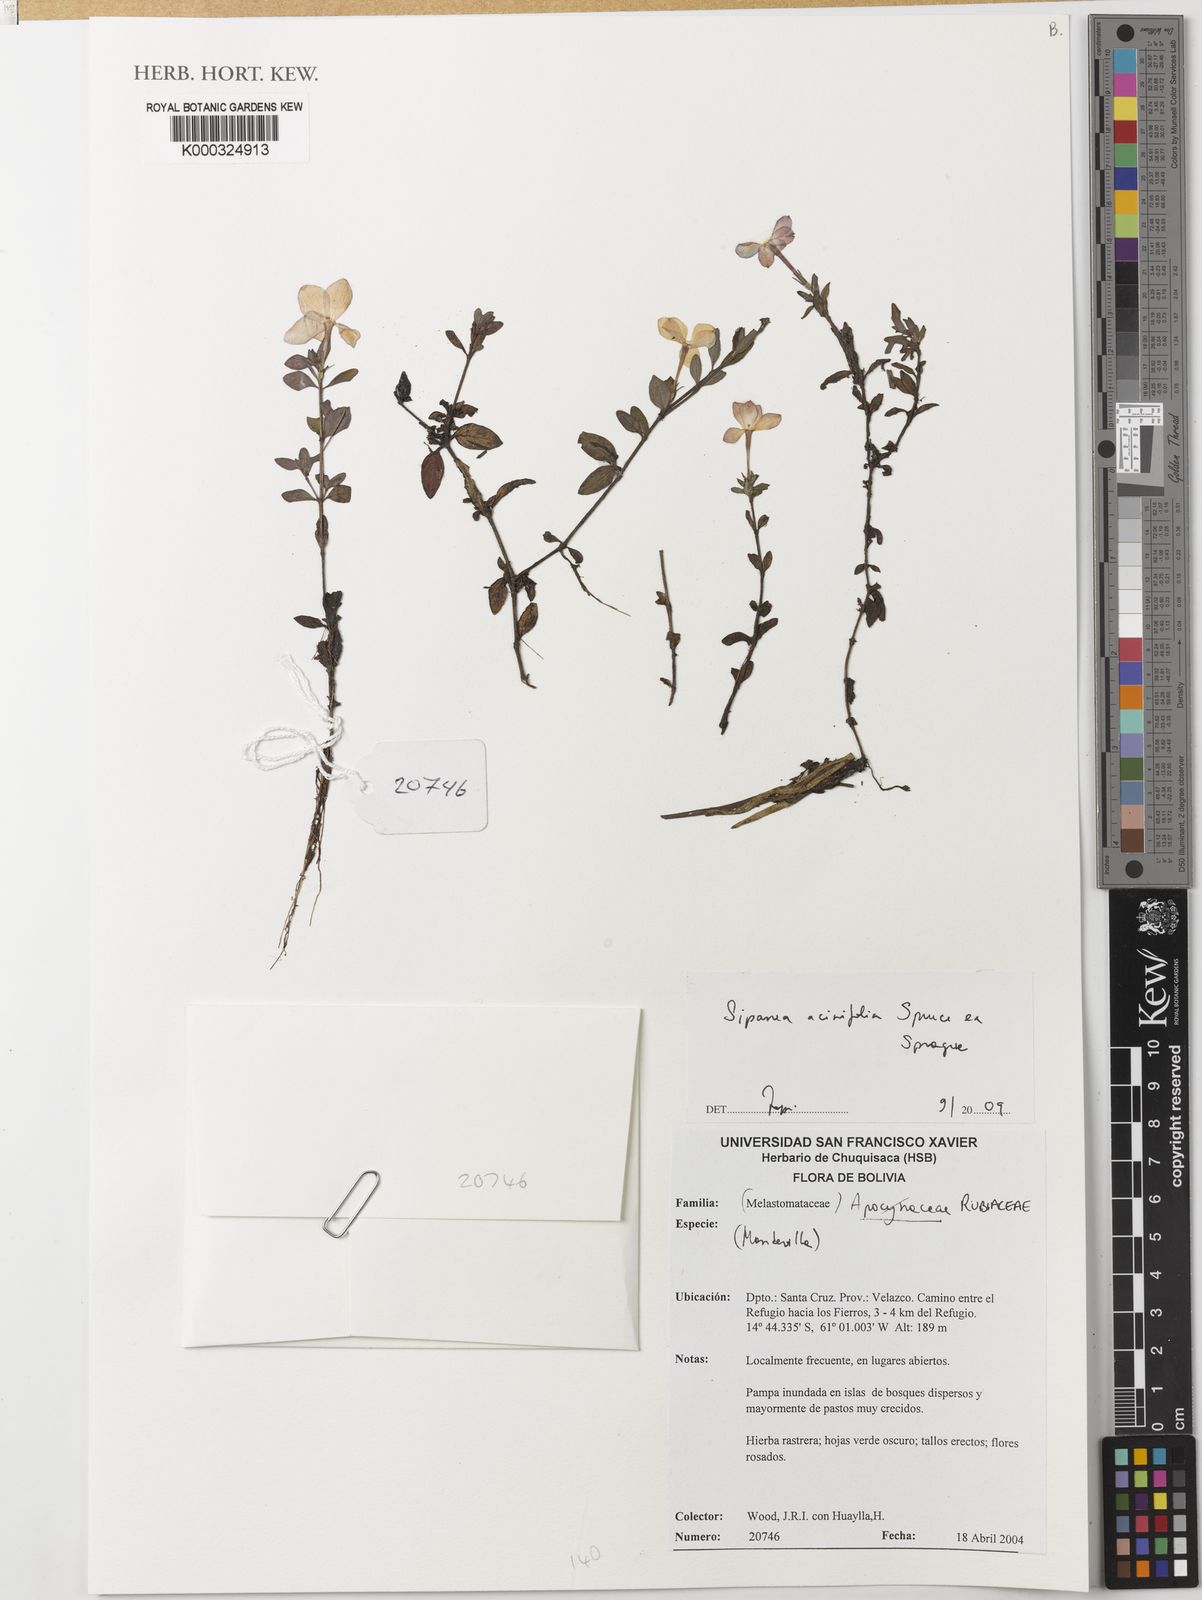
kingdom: Plantae
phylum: Tracheophyta
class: Magnoliopsida
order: Gentianales
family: Apocynaceae
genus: Mandevilla
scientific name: Mandevilla
